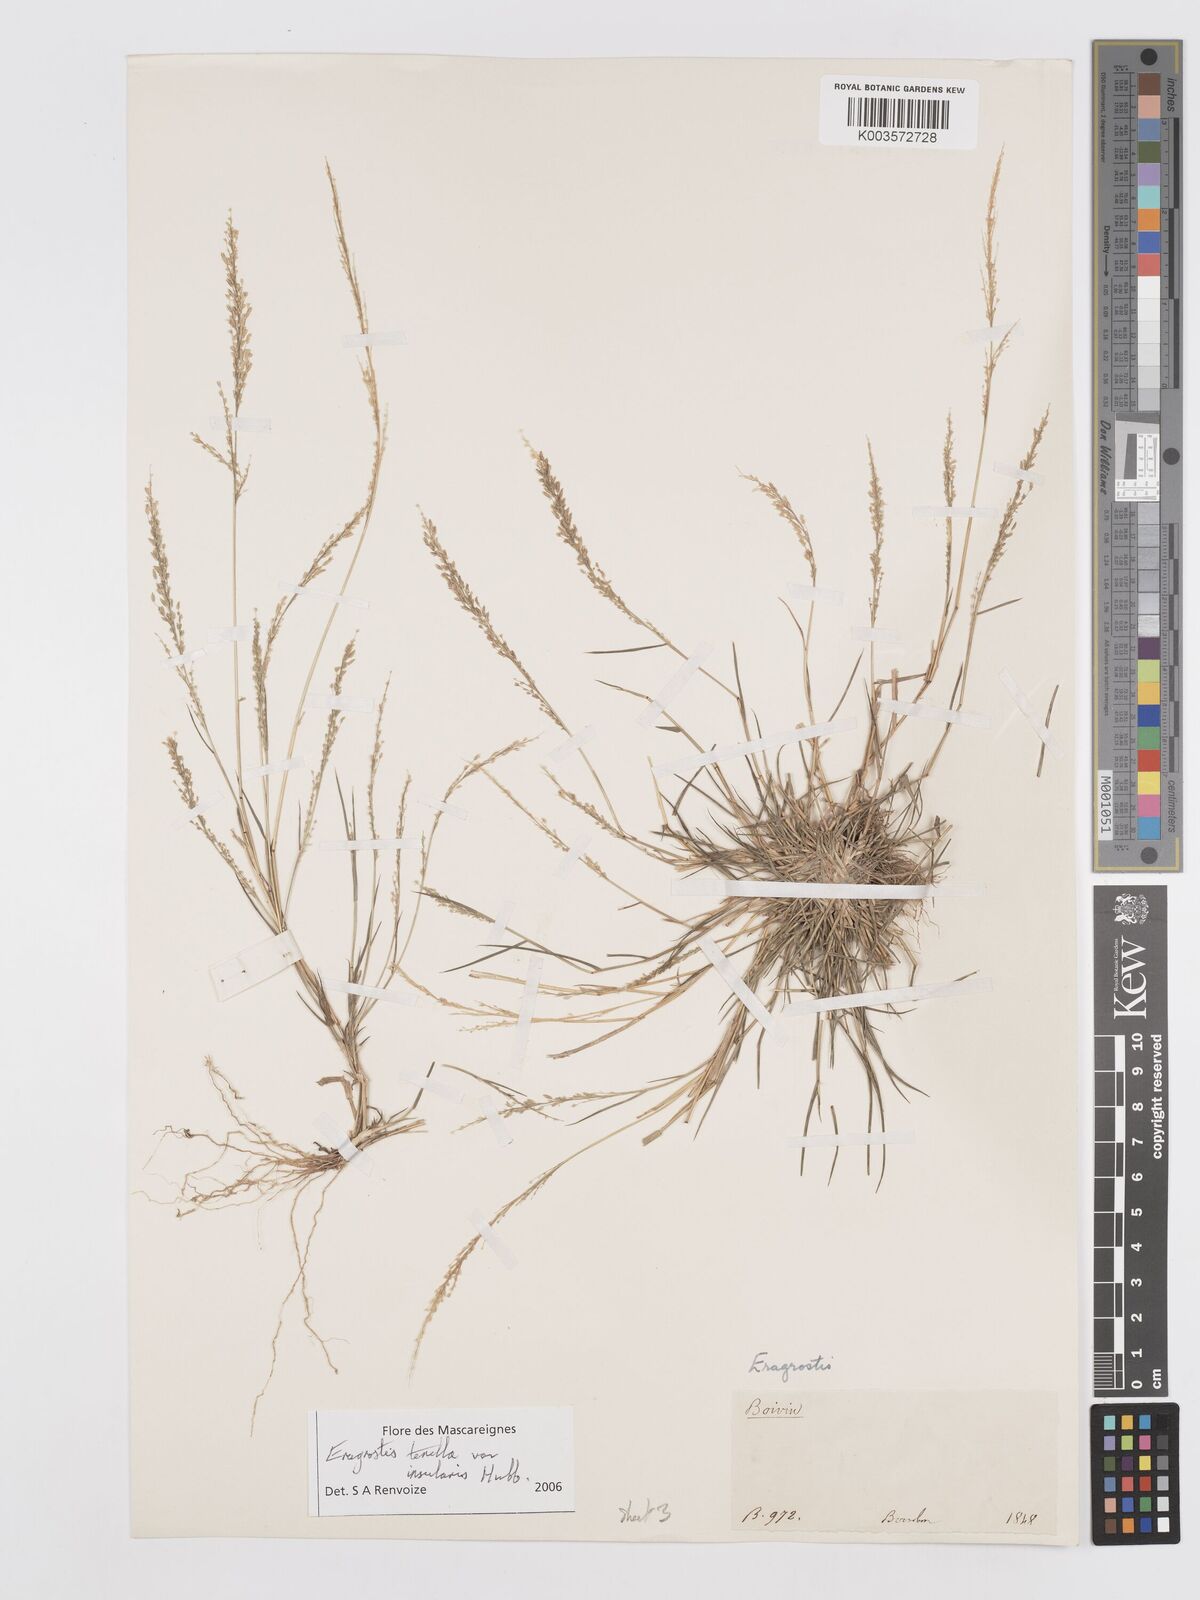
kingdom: Plantae
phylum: Tracheophyta
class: Liliopsida
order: Poales
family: Poaceae
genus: Eragrostis
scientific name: Eragrostis tenella
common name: Japanese lovegrass
